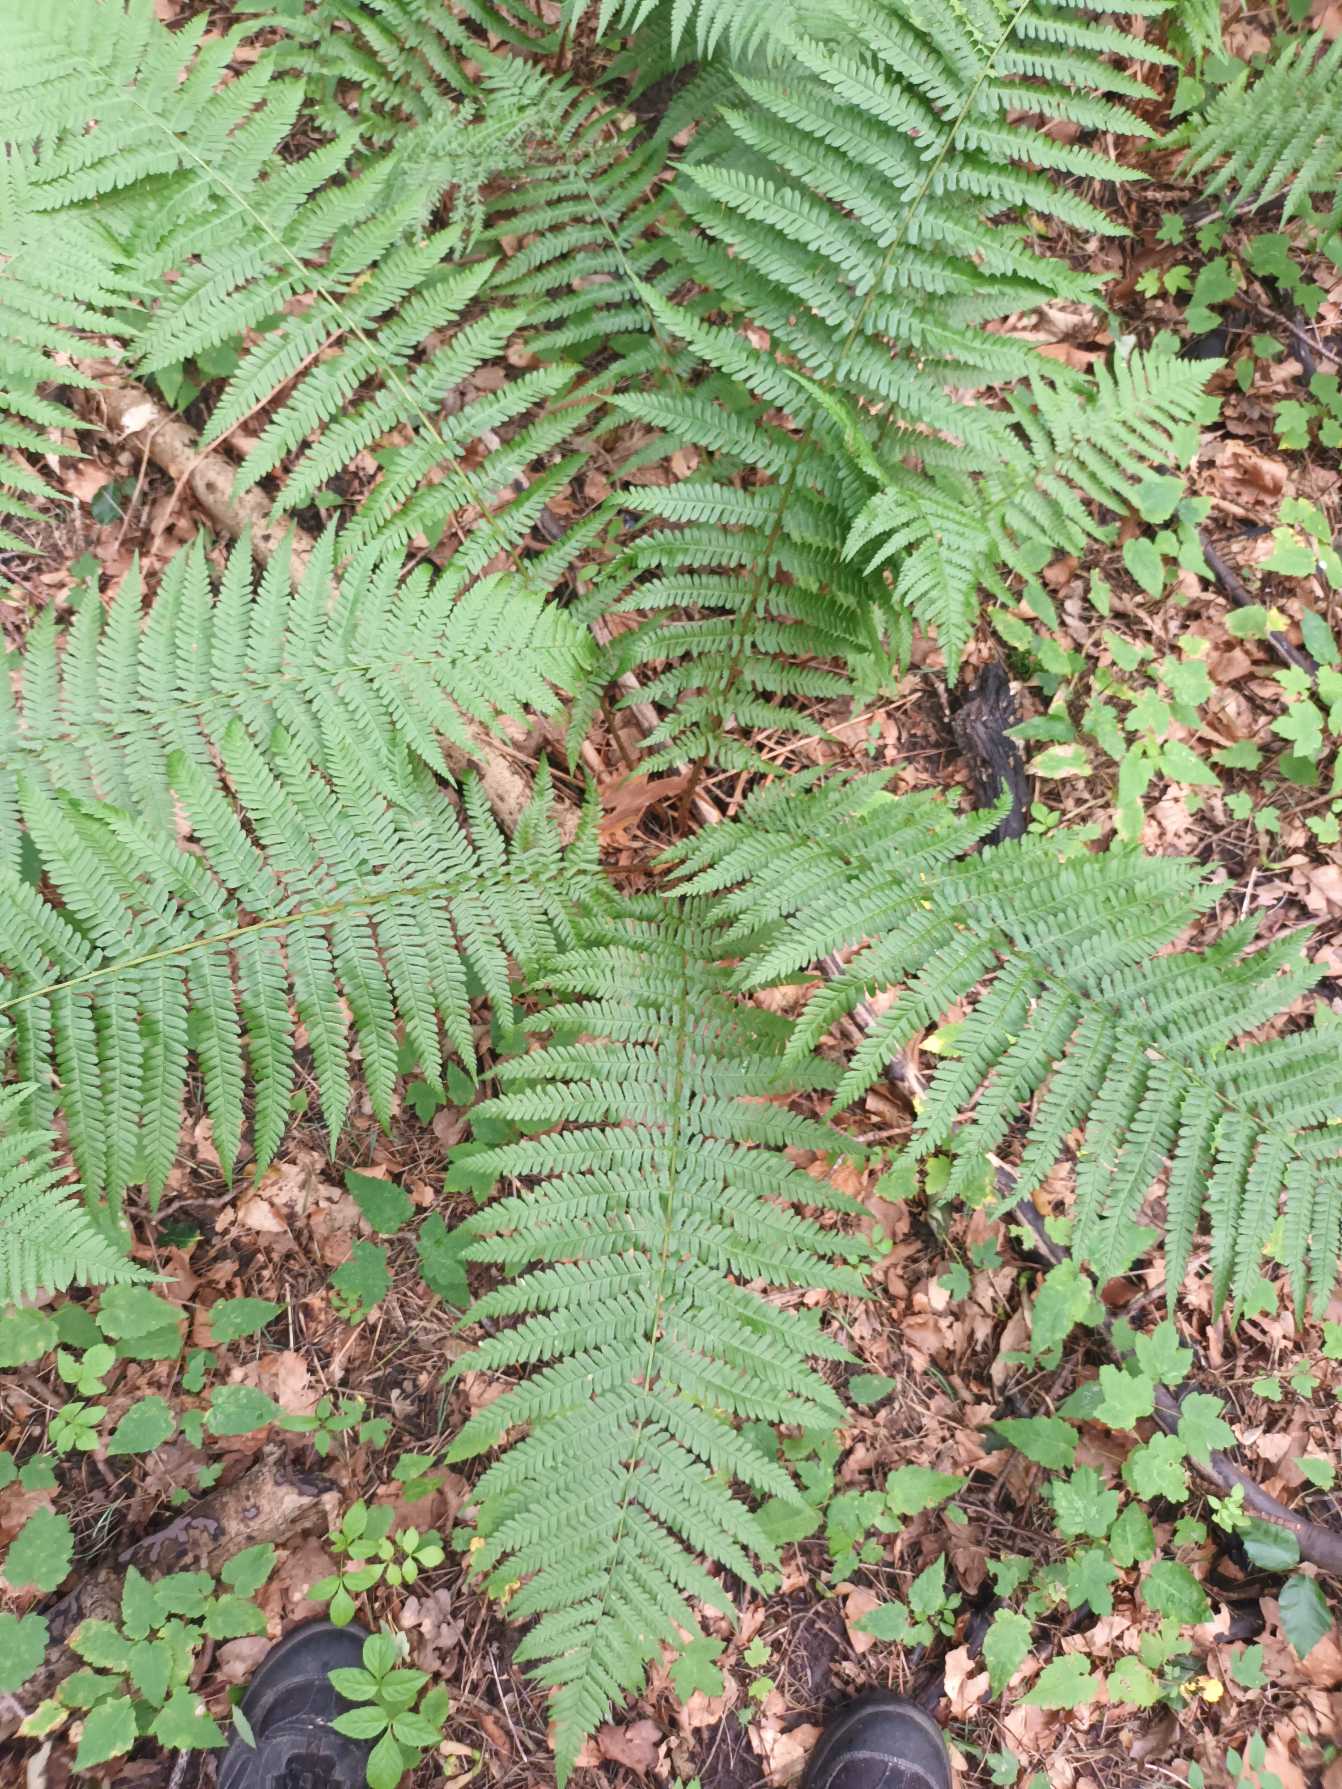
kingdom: Plantae
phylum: Tracheophyta
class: Polypodiopsida
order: Polypodiales
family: Dryopteridaceae
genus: Dryopteris
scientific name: Dryopteris filix-mas
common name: Almindelig mangeløv
